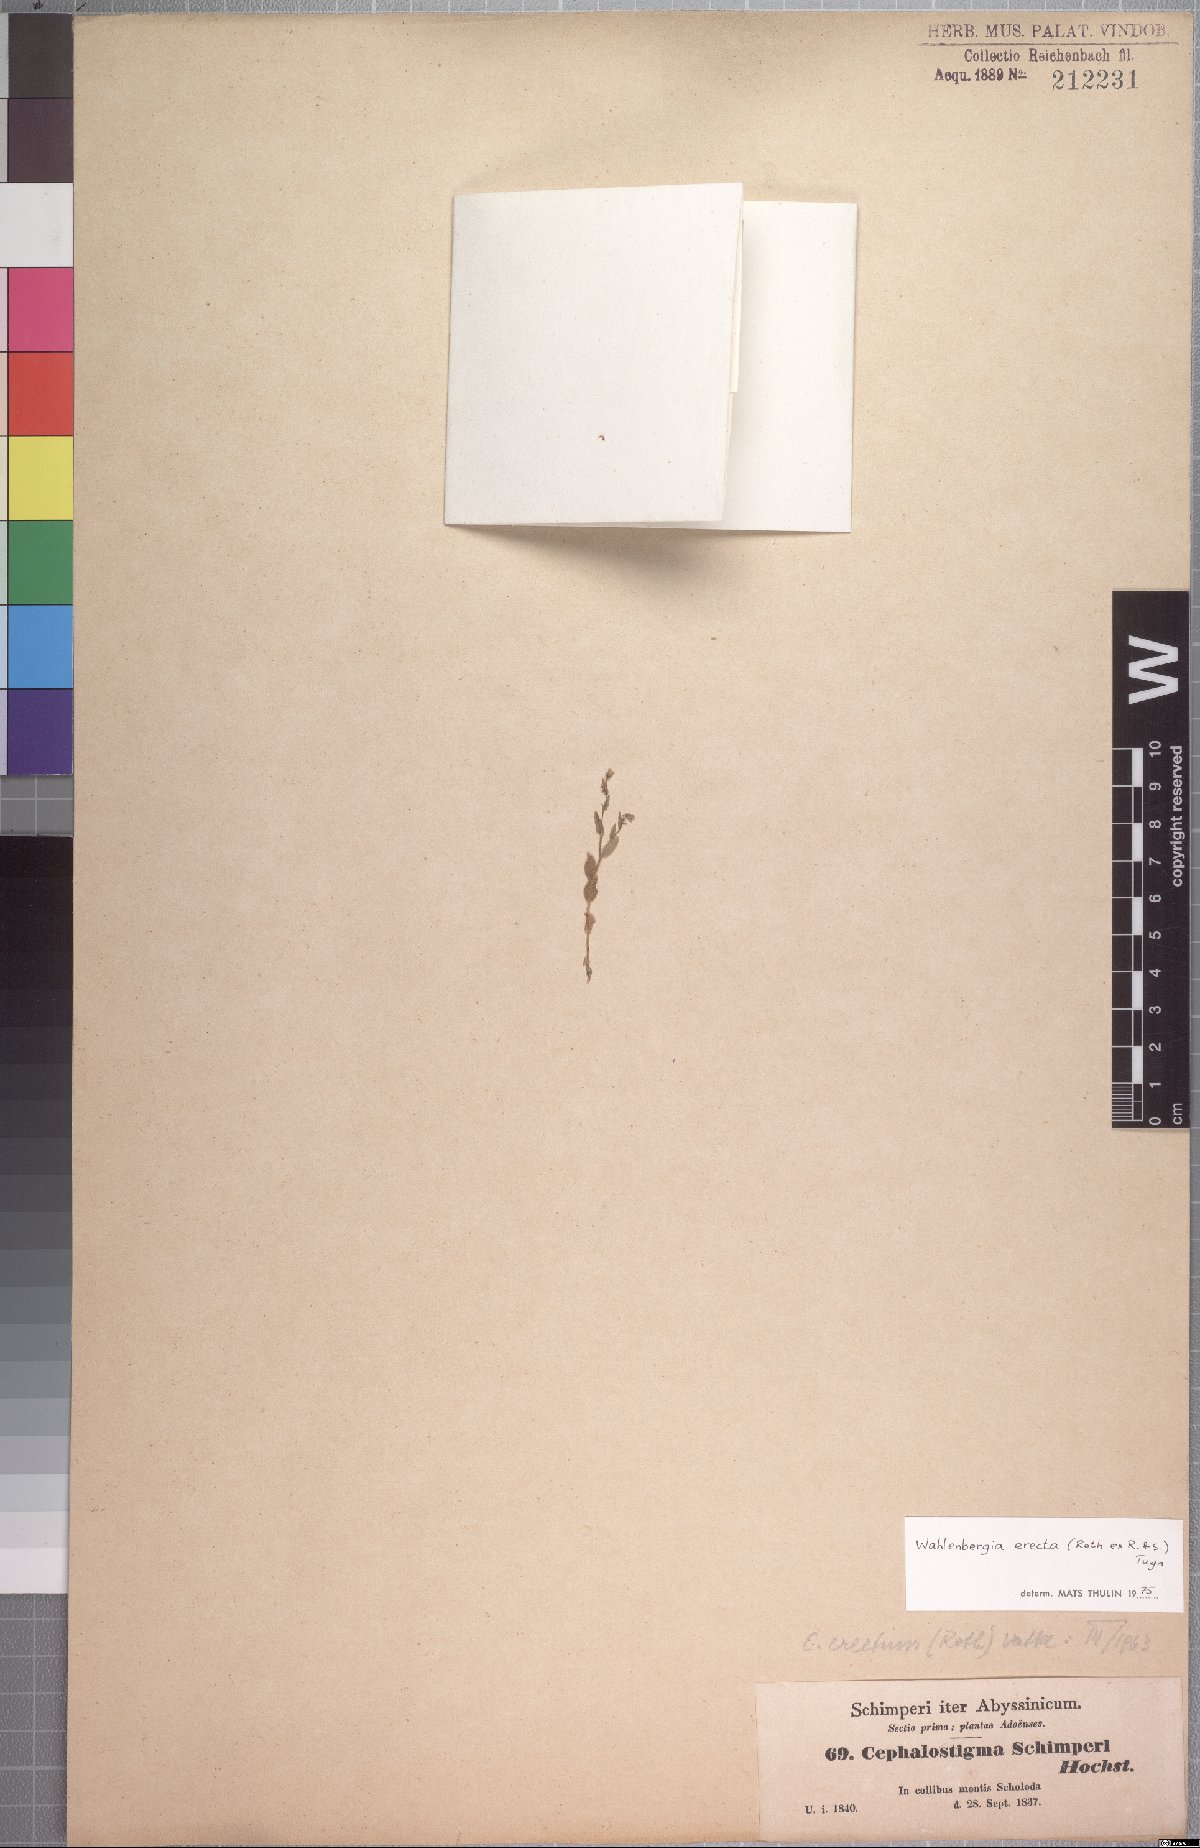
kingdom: Plantae
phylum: Tracheophyta
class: Magnoliopsida
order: Asterales
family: Campanulaceae
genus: Wahlenbergia
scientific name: Wahlenbergia erecta
